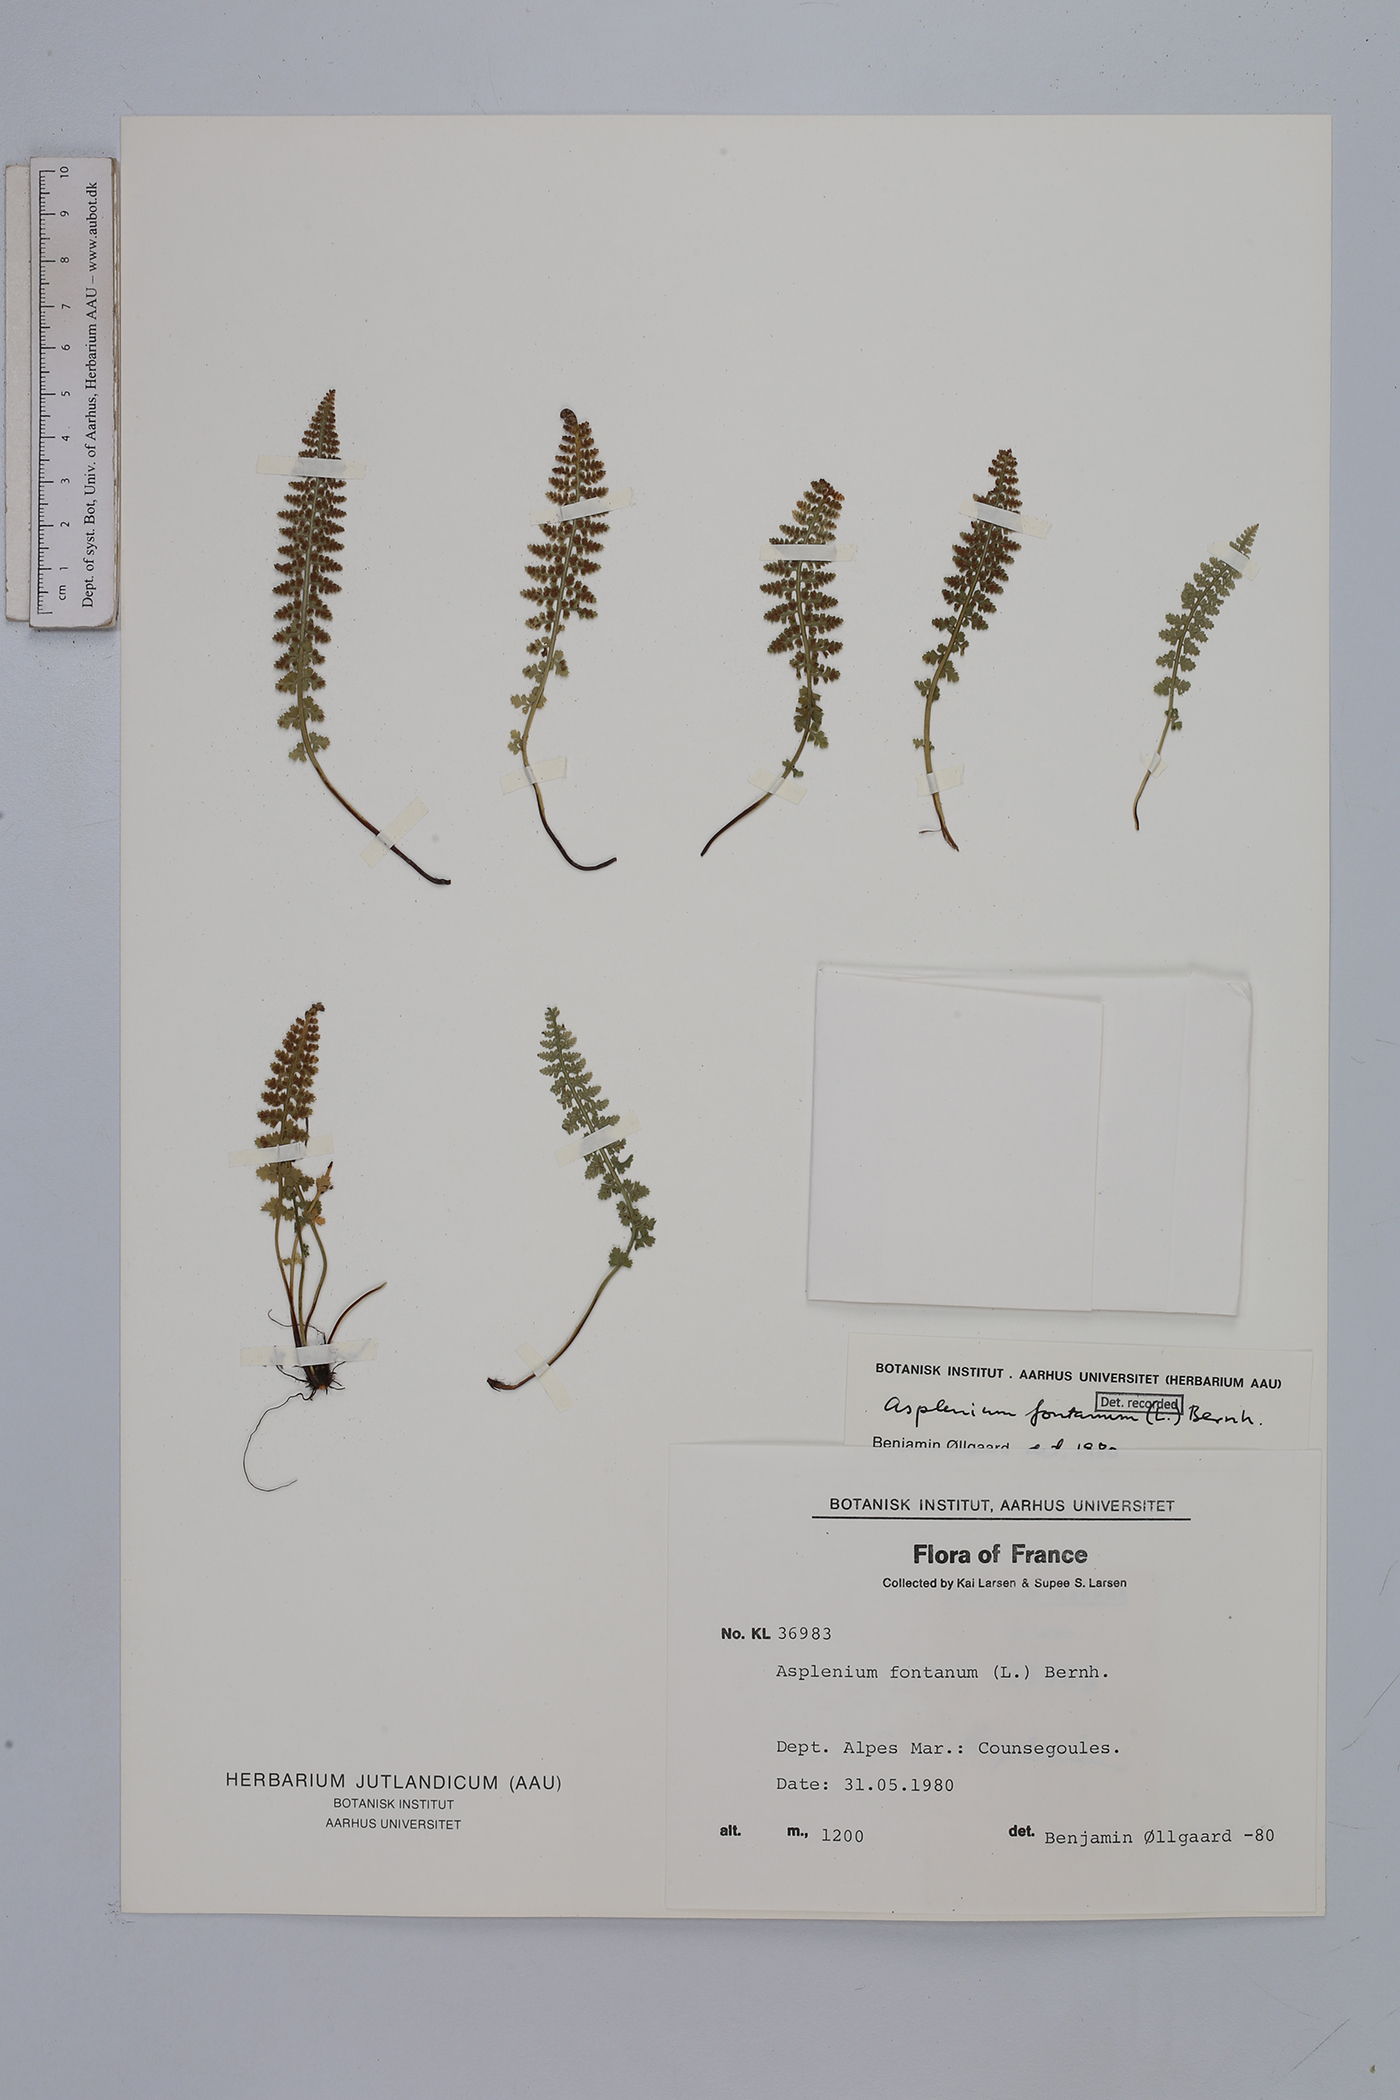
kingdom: Plantae
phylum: Tracheophyta
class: Polypodiopsida
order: Polypodiales
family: Aspleniaceae
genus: Asplenium
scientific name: Asplenium fontanum
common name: Fountain spleenwort
